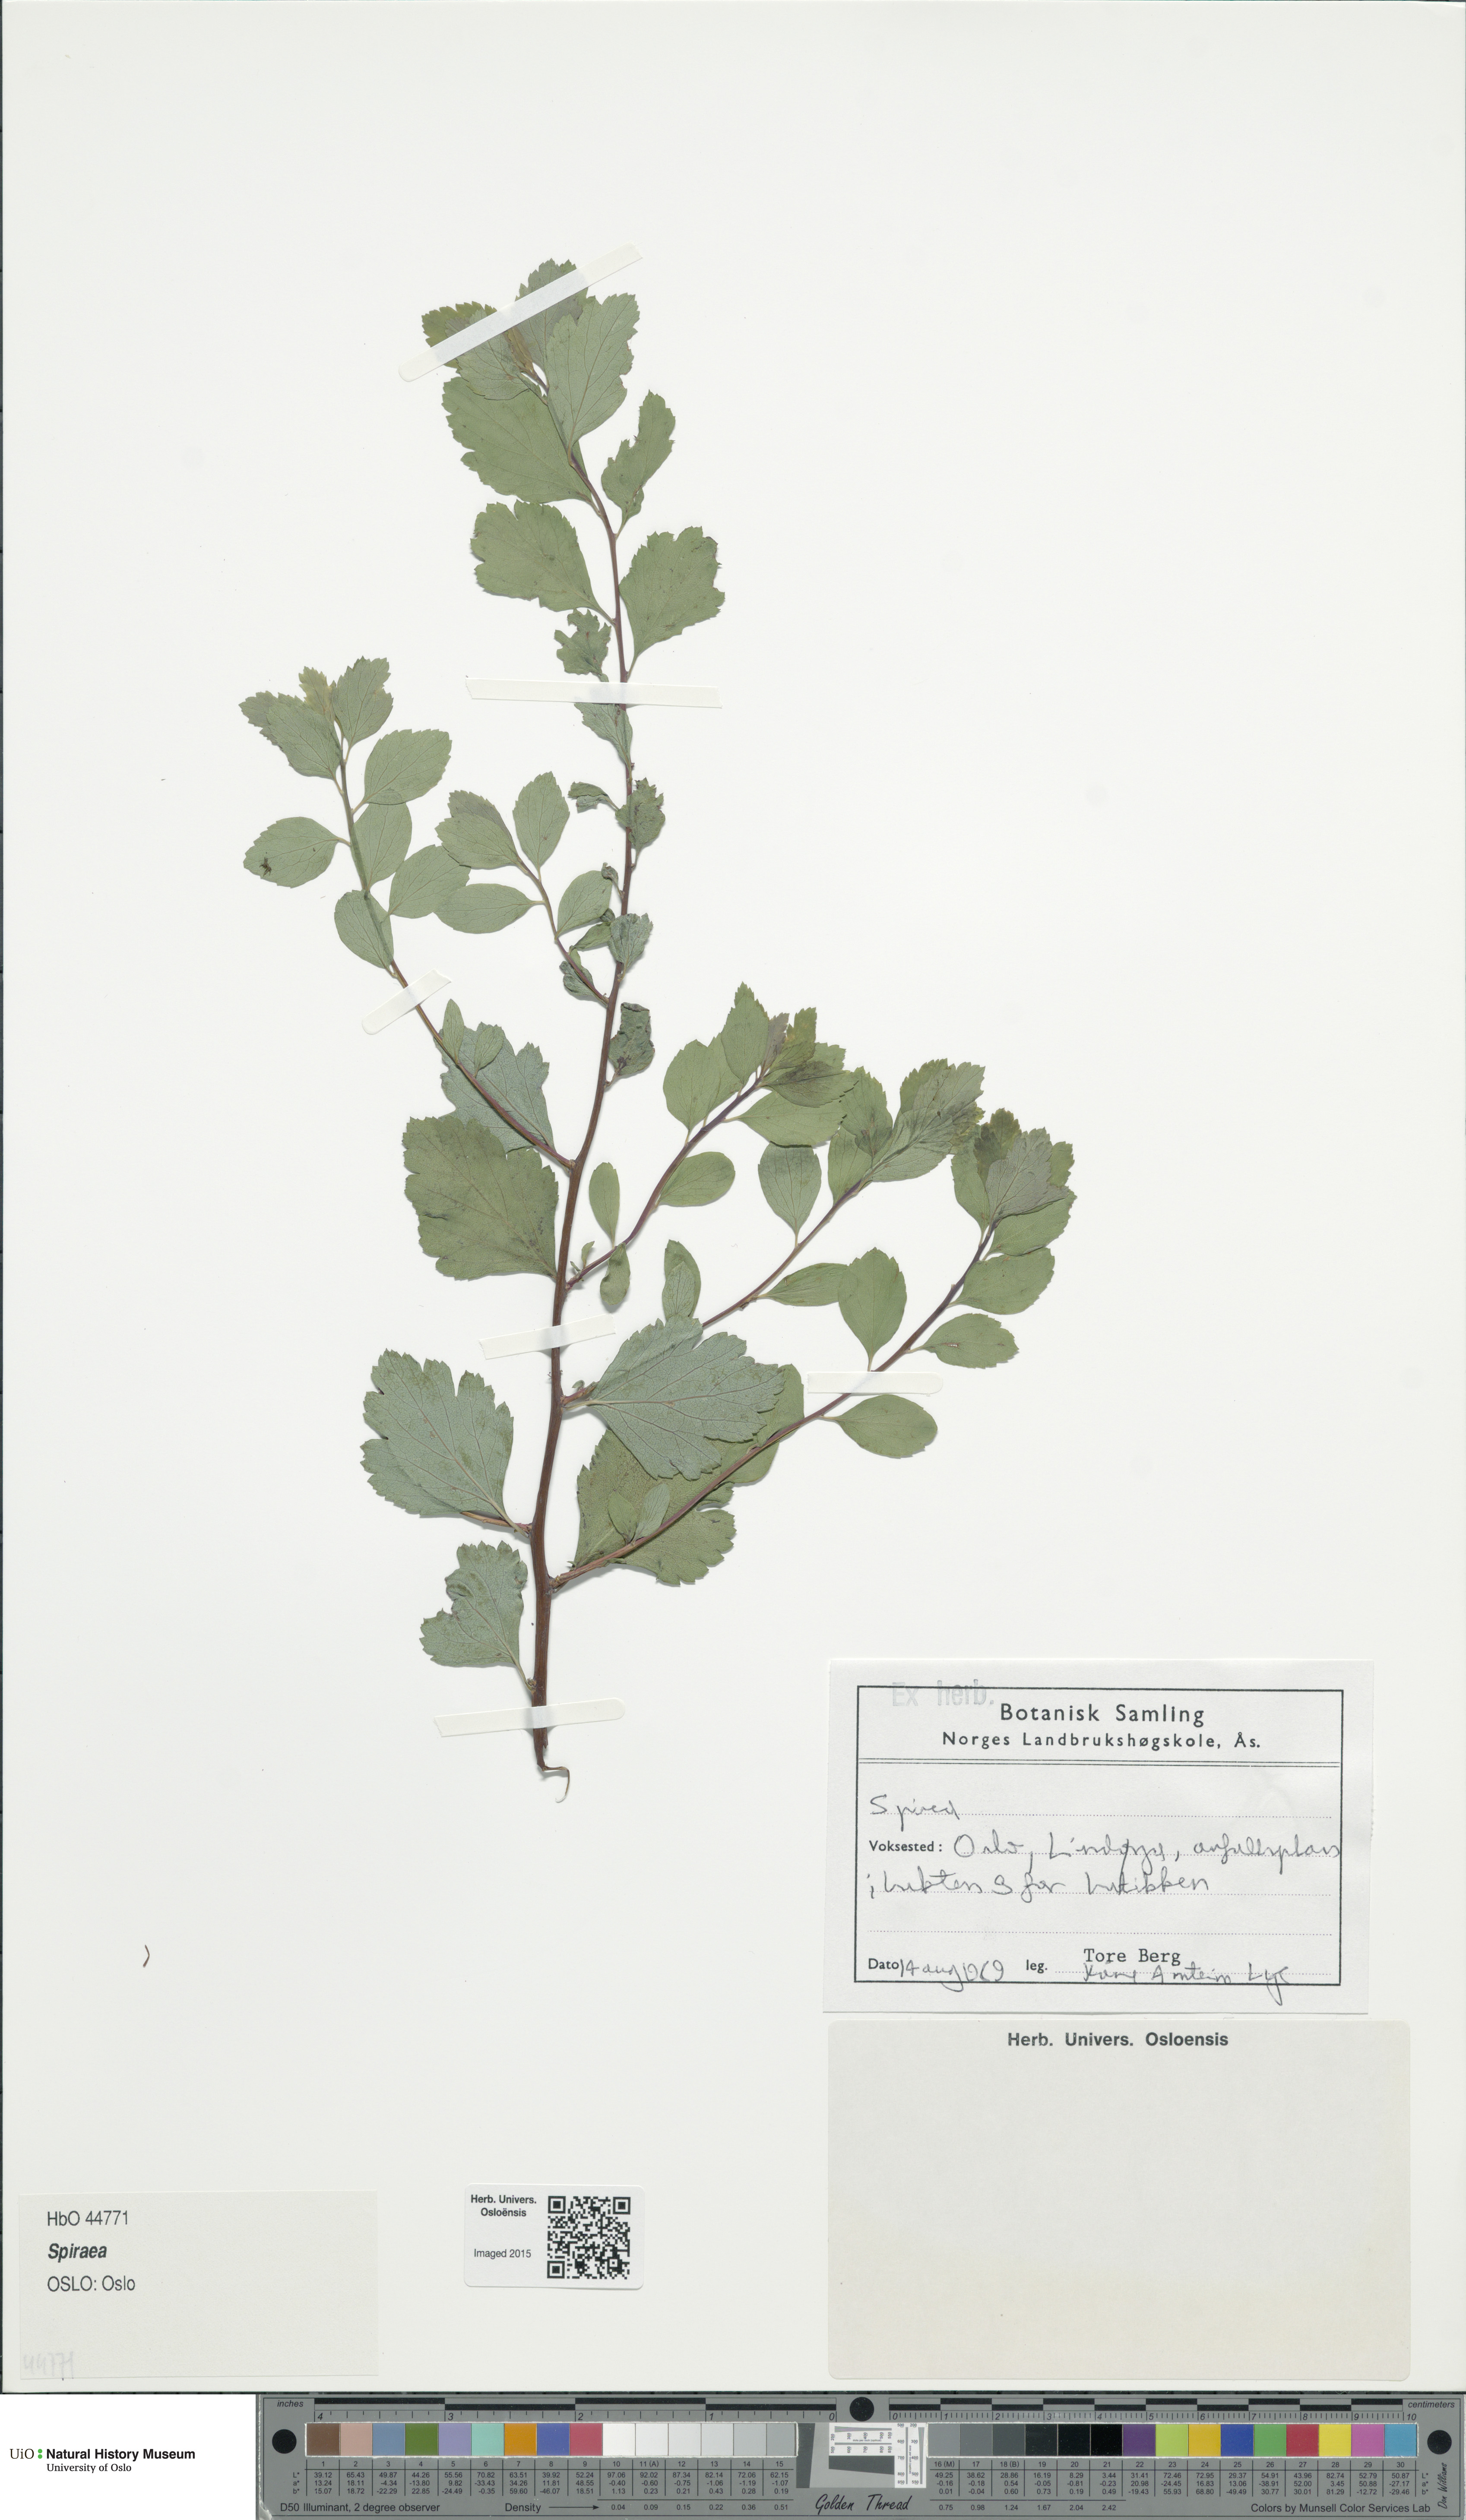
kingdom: Plantae
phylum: Tracheophyta
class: Magnoliopsida
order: Rosales
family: Rosaceae
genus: Spiraea
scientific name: Spiraea
